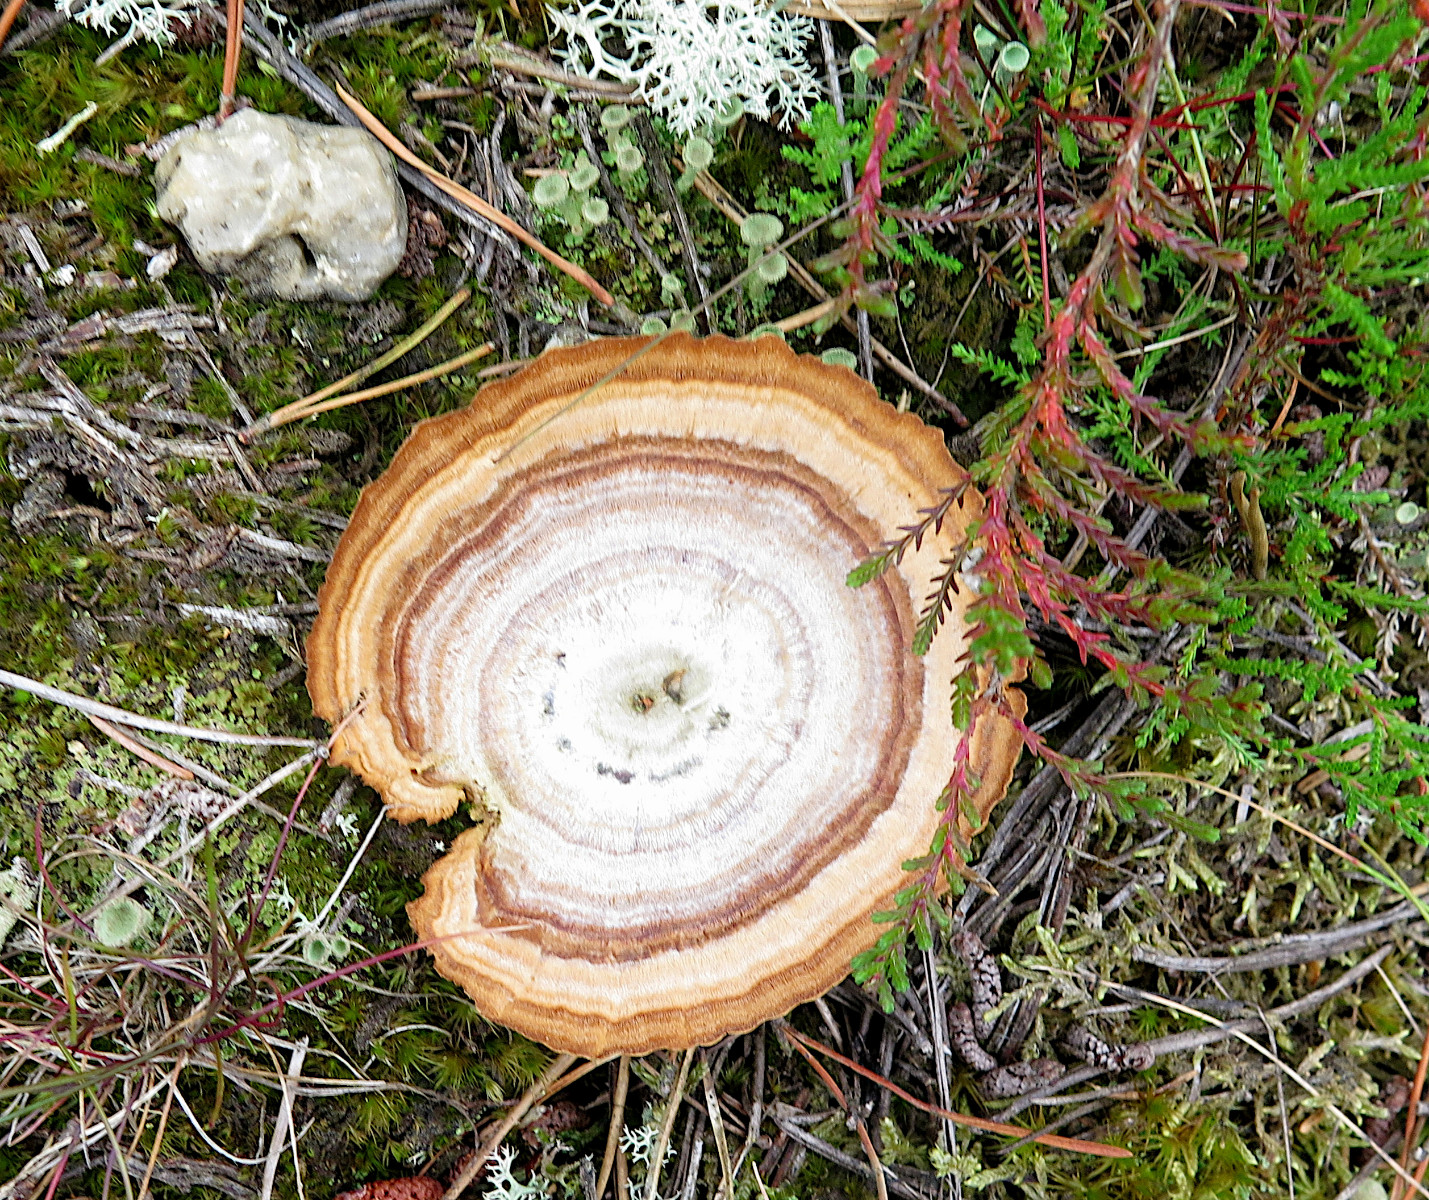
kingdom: Fungi
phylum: Basidiomycota
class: Agaricomycetes
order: Hymenochaetales
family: Hymenochaetaceae
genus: Coltricia
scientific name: Coltricia perennis
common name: almindelig sandporesvamp
